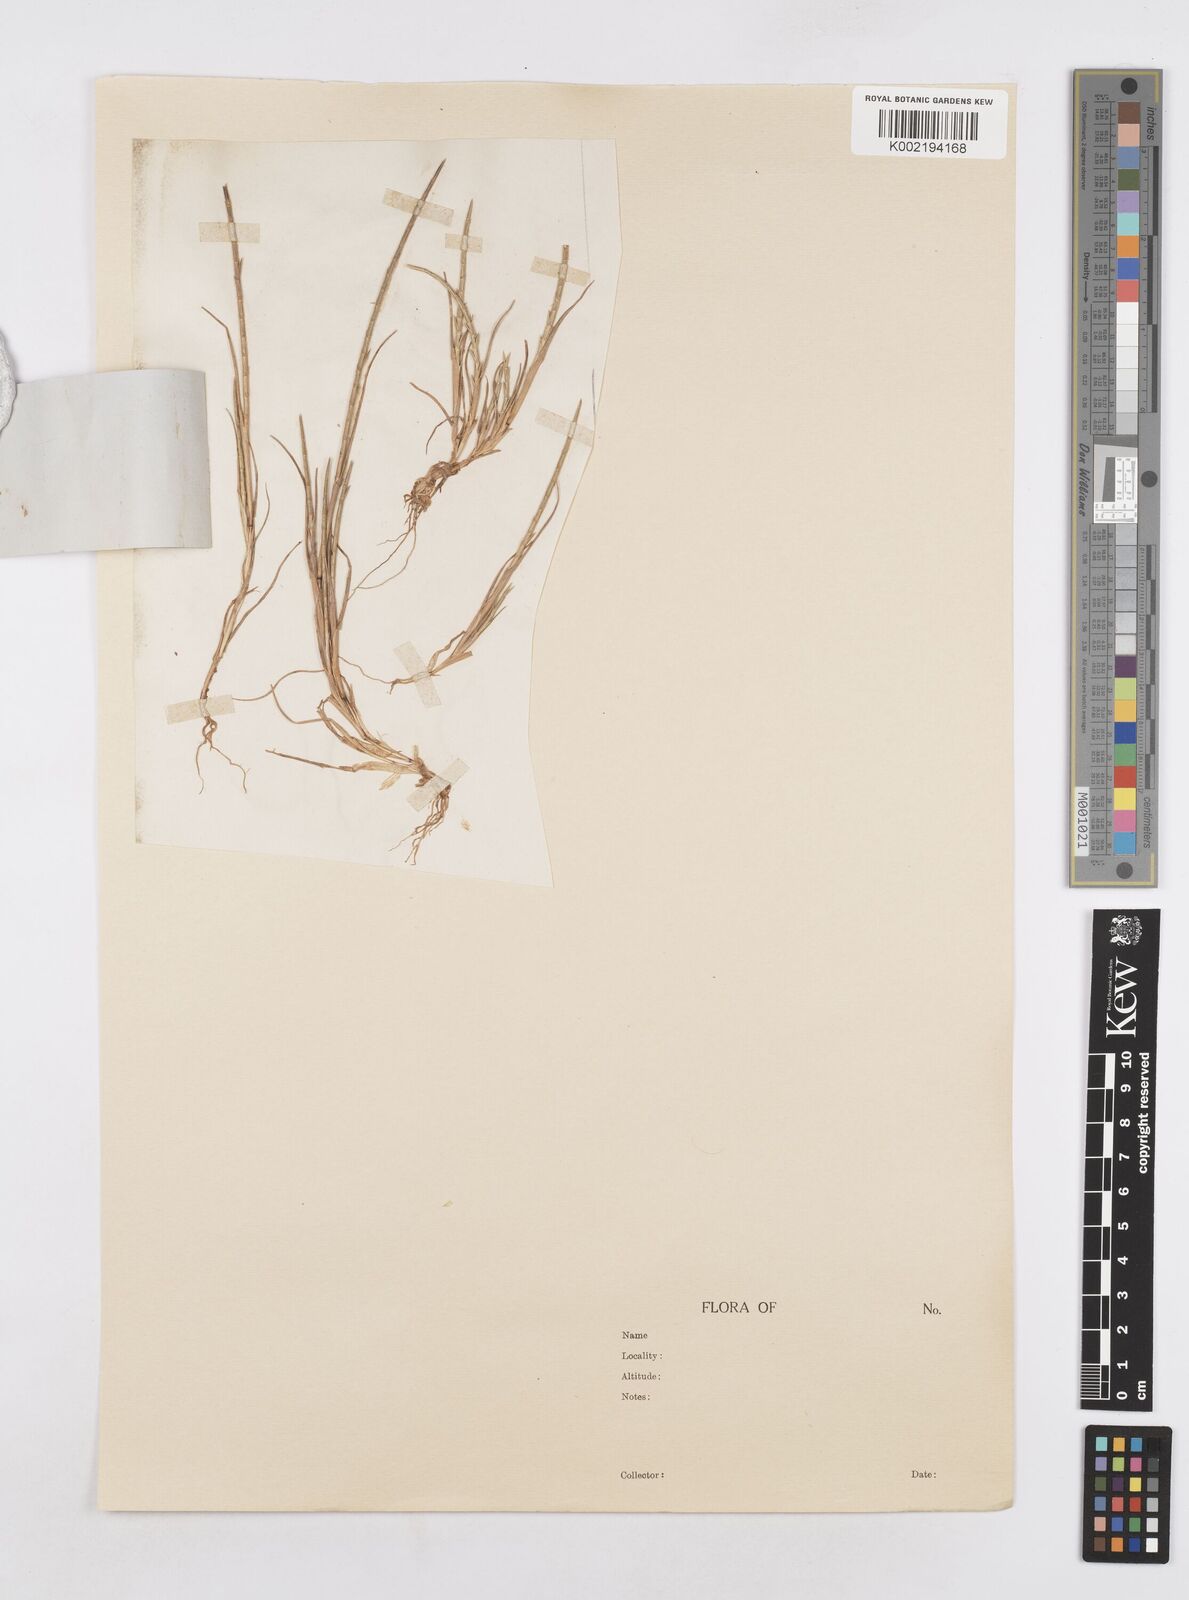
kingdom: Plantae
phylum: Tracheophyta
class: Liliopsida
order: Poales
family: Poaceae
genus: Parapholis
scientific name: Parapholis cylindrica
